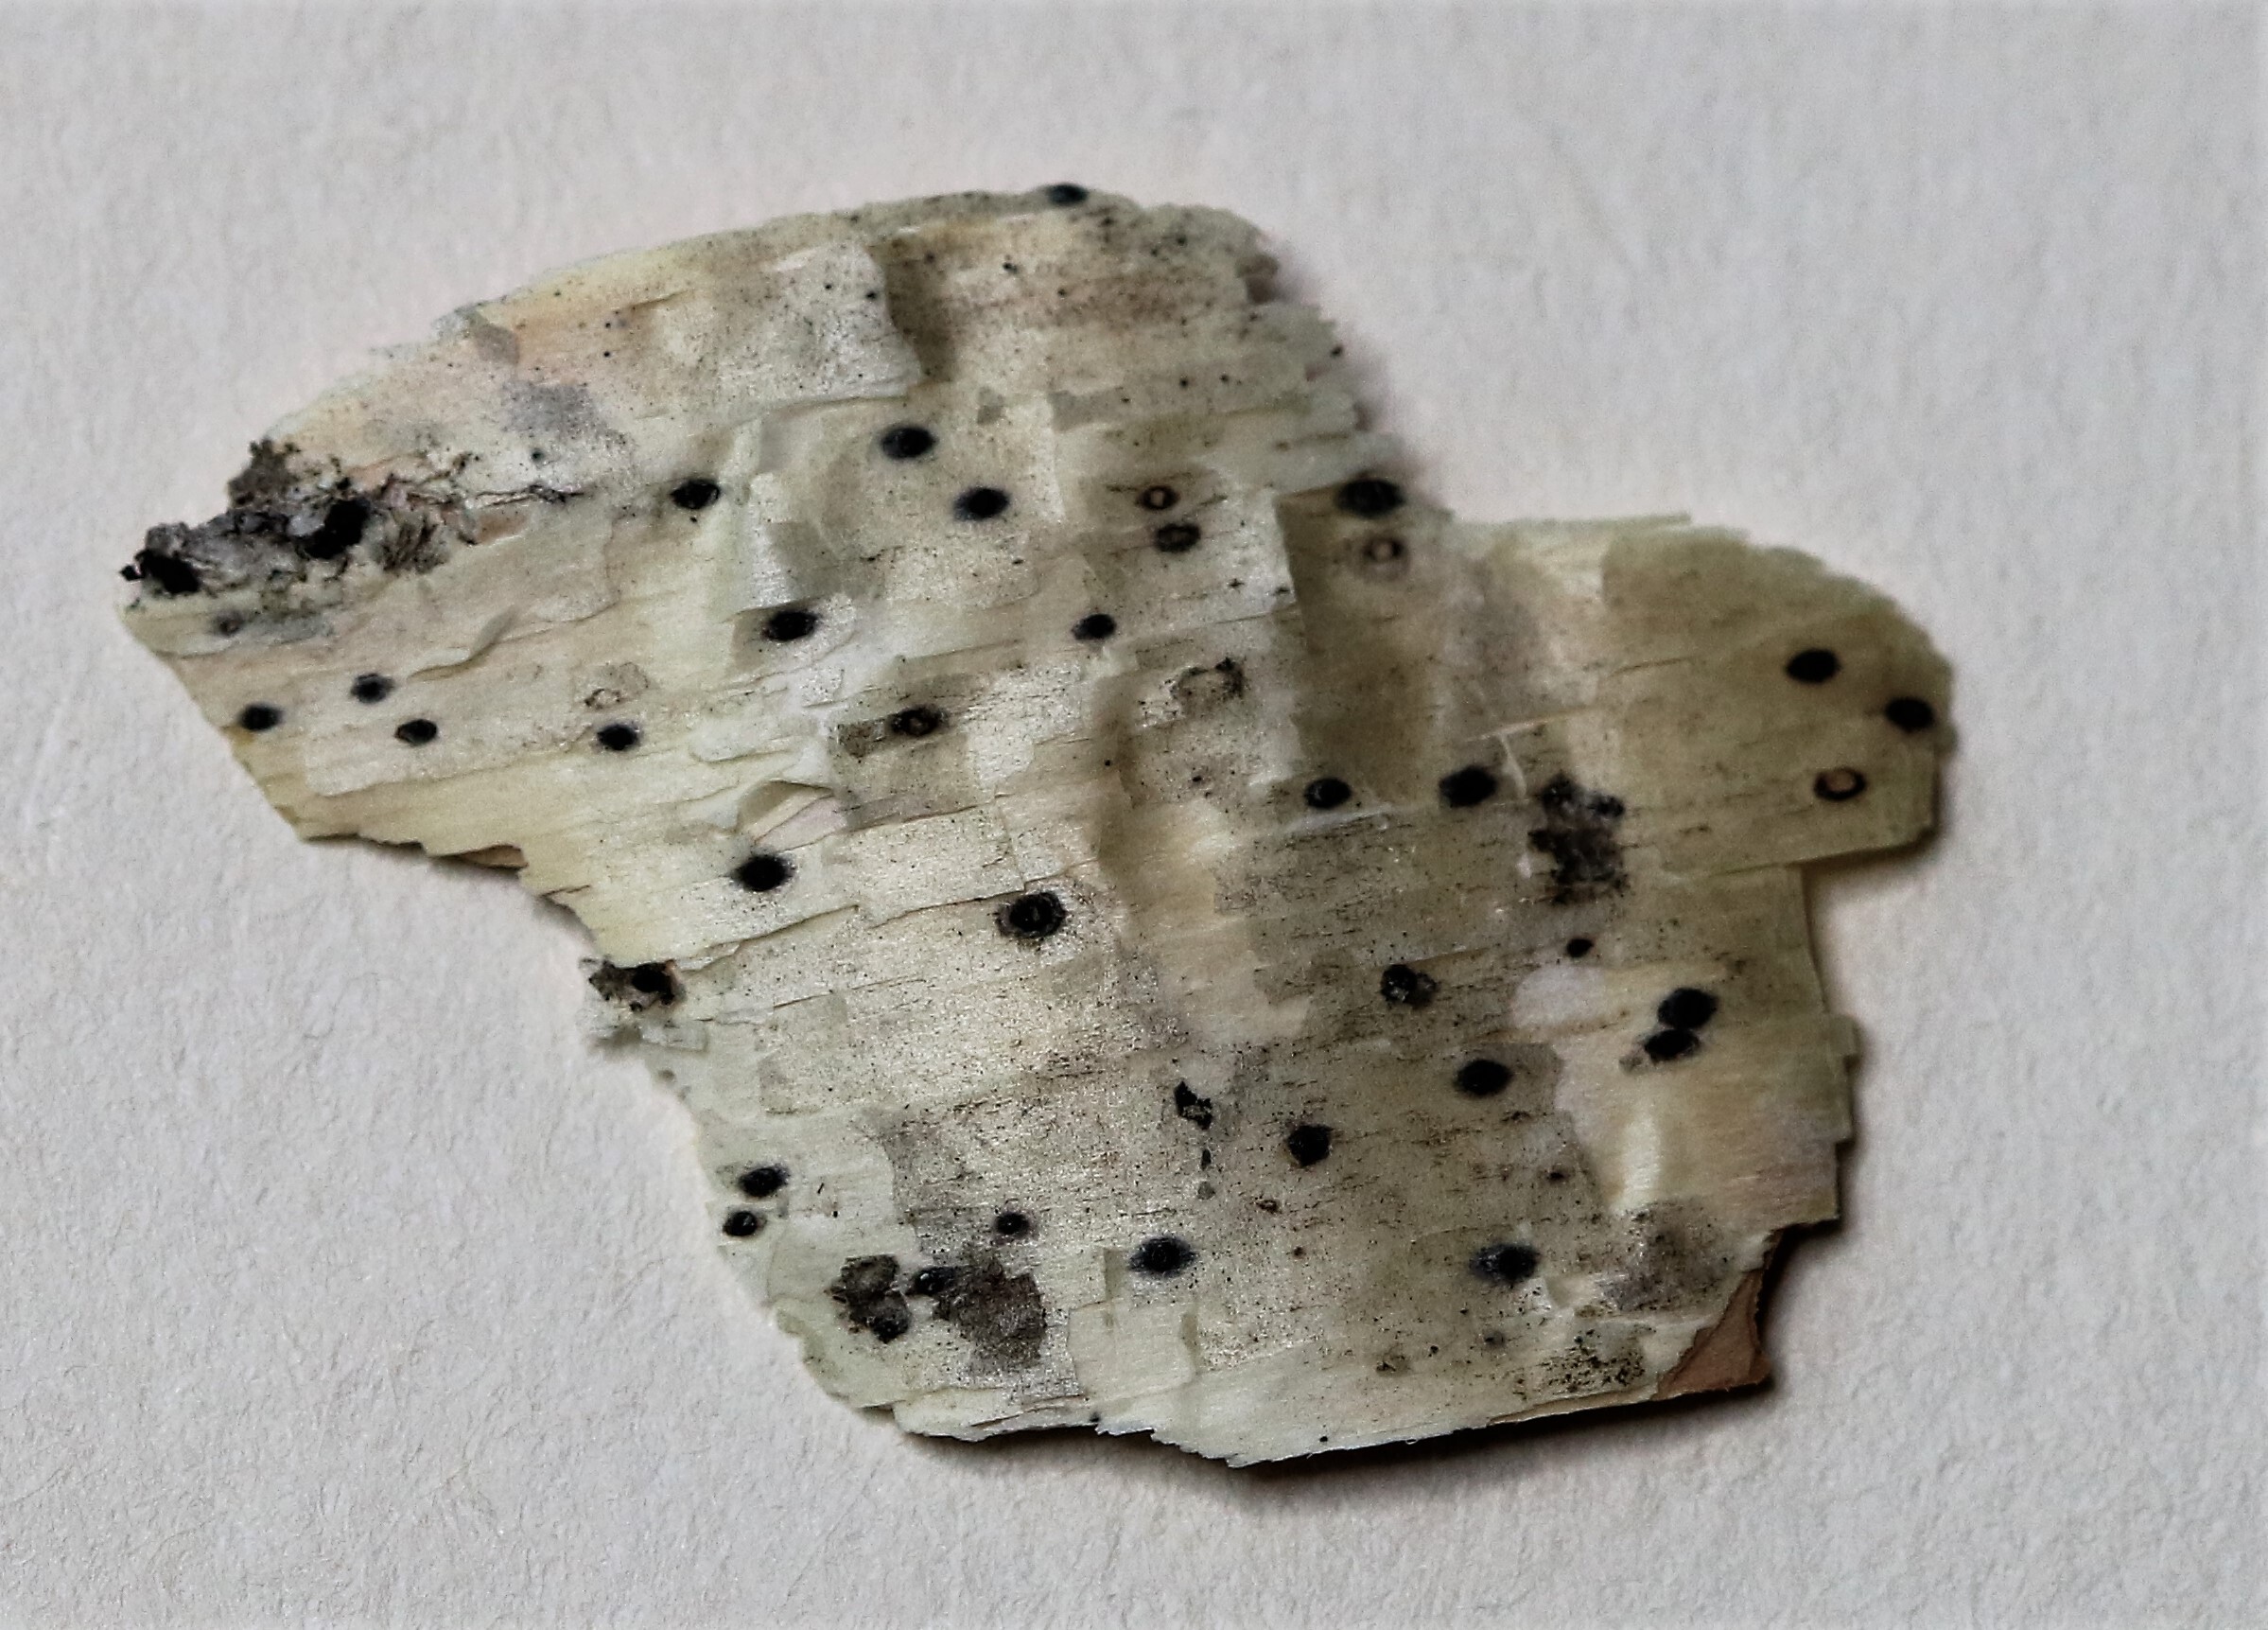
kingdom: Fungi
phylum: Ascomycota
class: Dothideomycetes
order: Pleosporales
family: Naetrocymbaceae
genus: Leptorhaphis
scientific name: Leptorhaphis epidermidis
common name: Birchbark dot lichen
